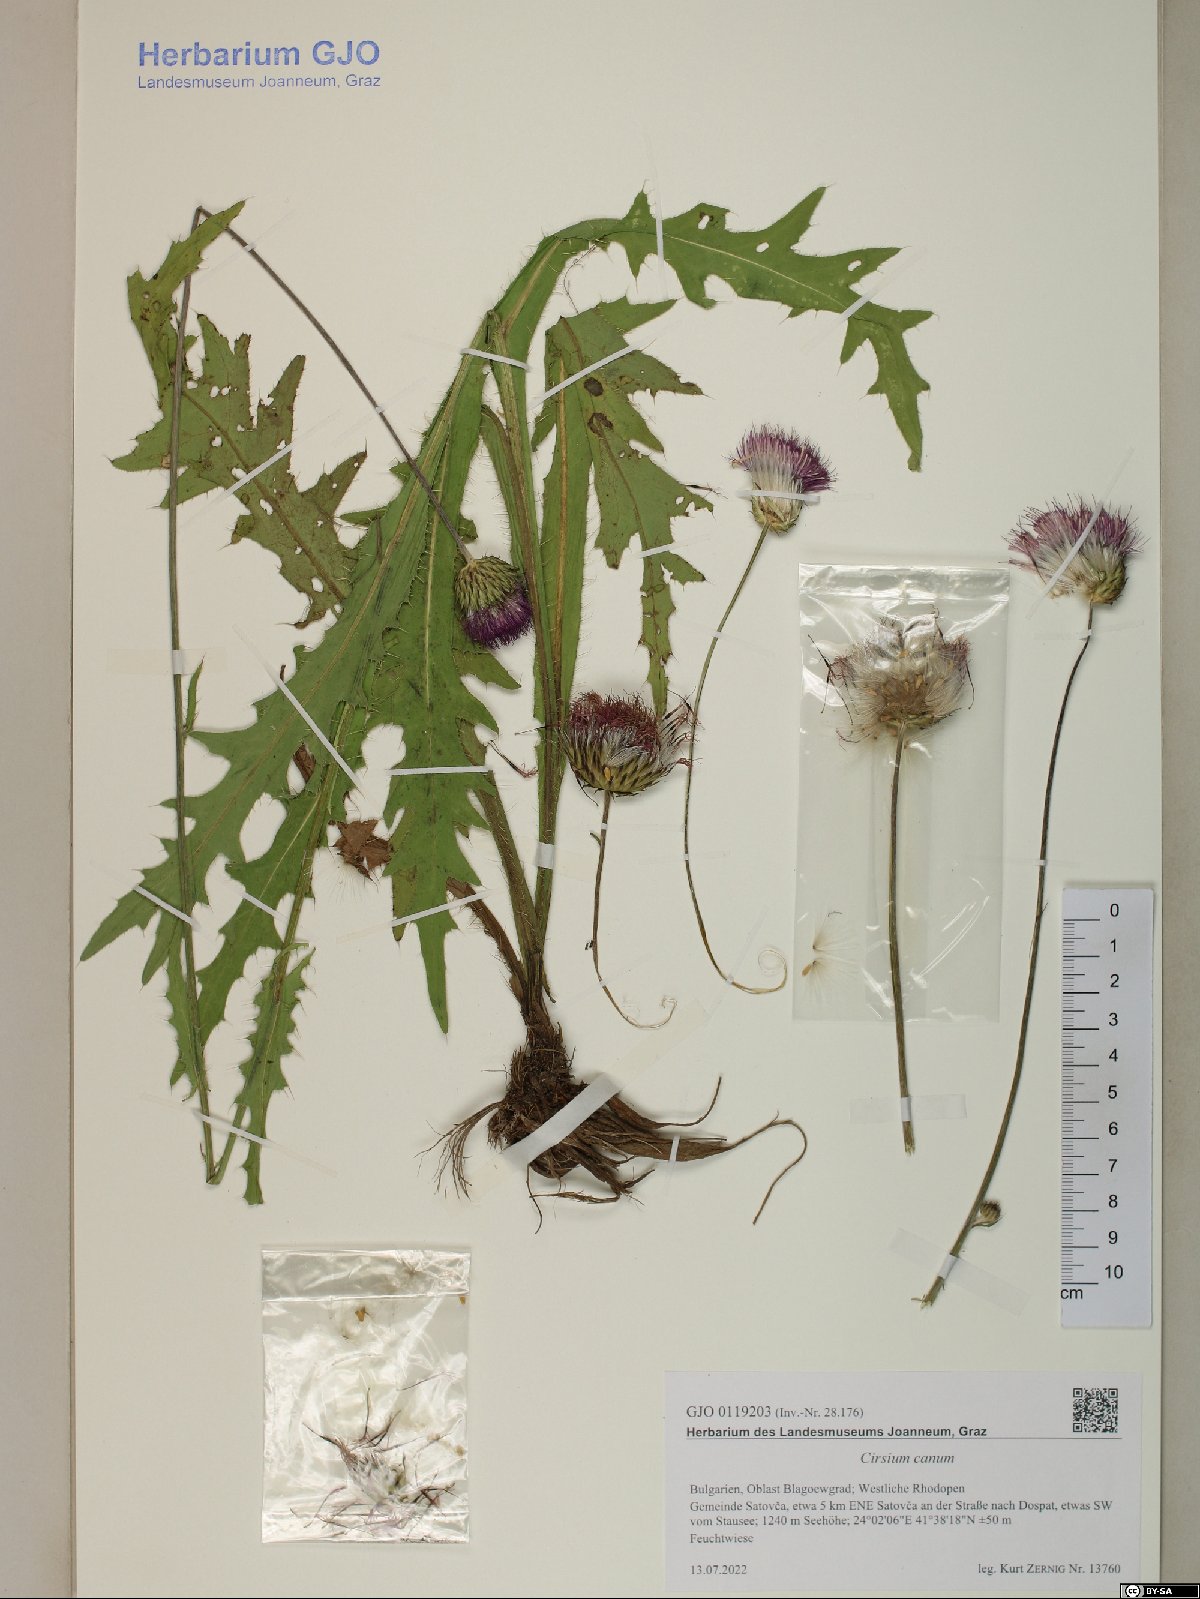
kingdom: Plantae
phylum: Tracheophyta
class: Magnoliopsida
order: Asterales
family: Asteraceae
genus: Cirsium
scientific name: Cirsium canum
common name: Queen anne's thistle
